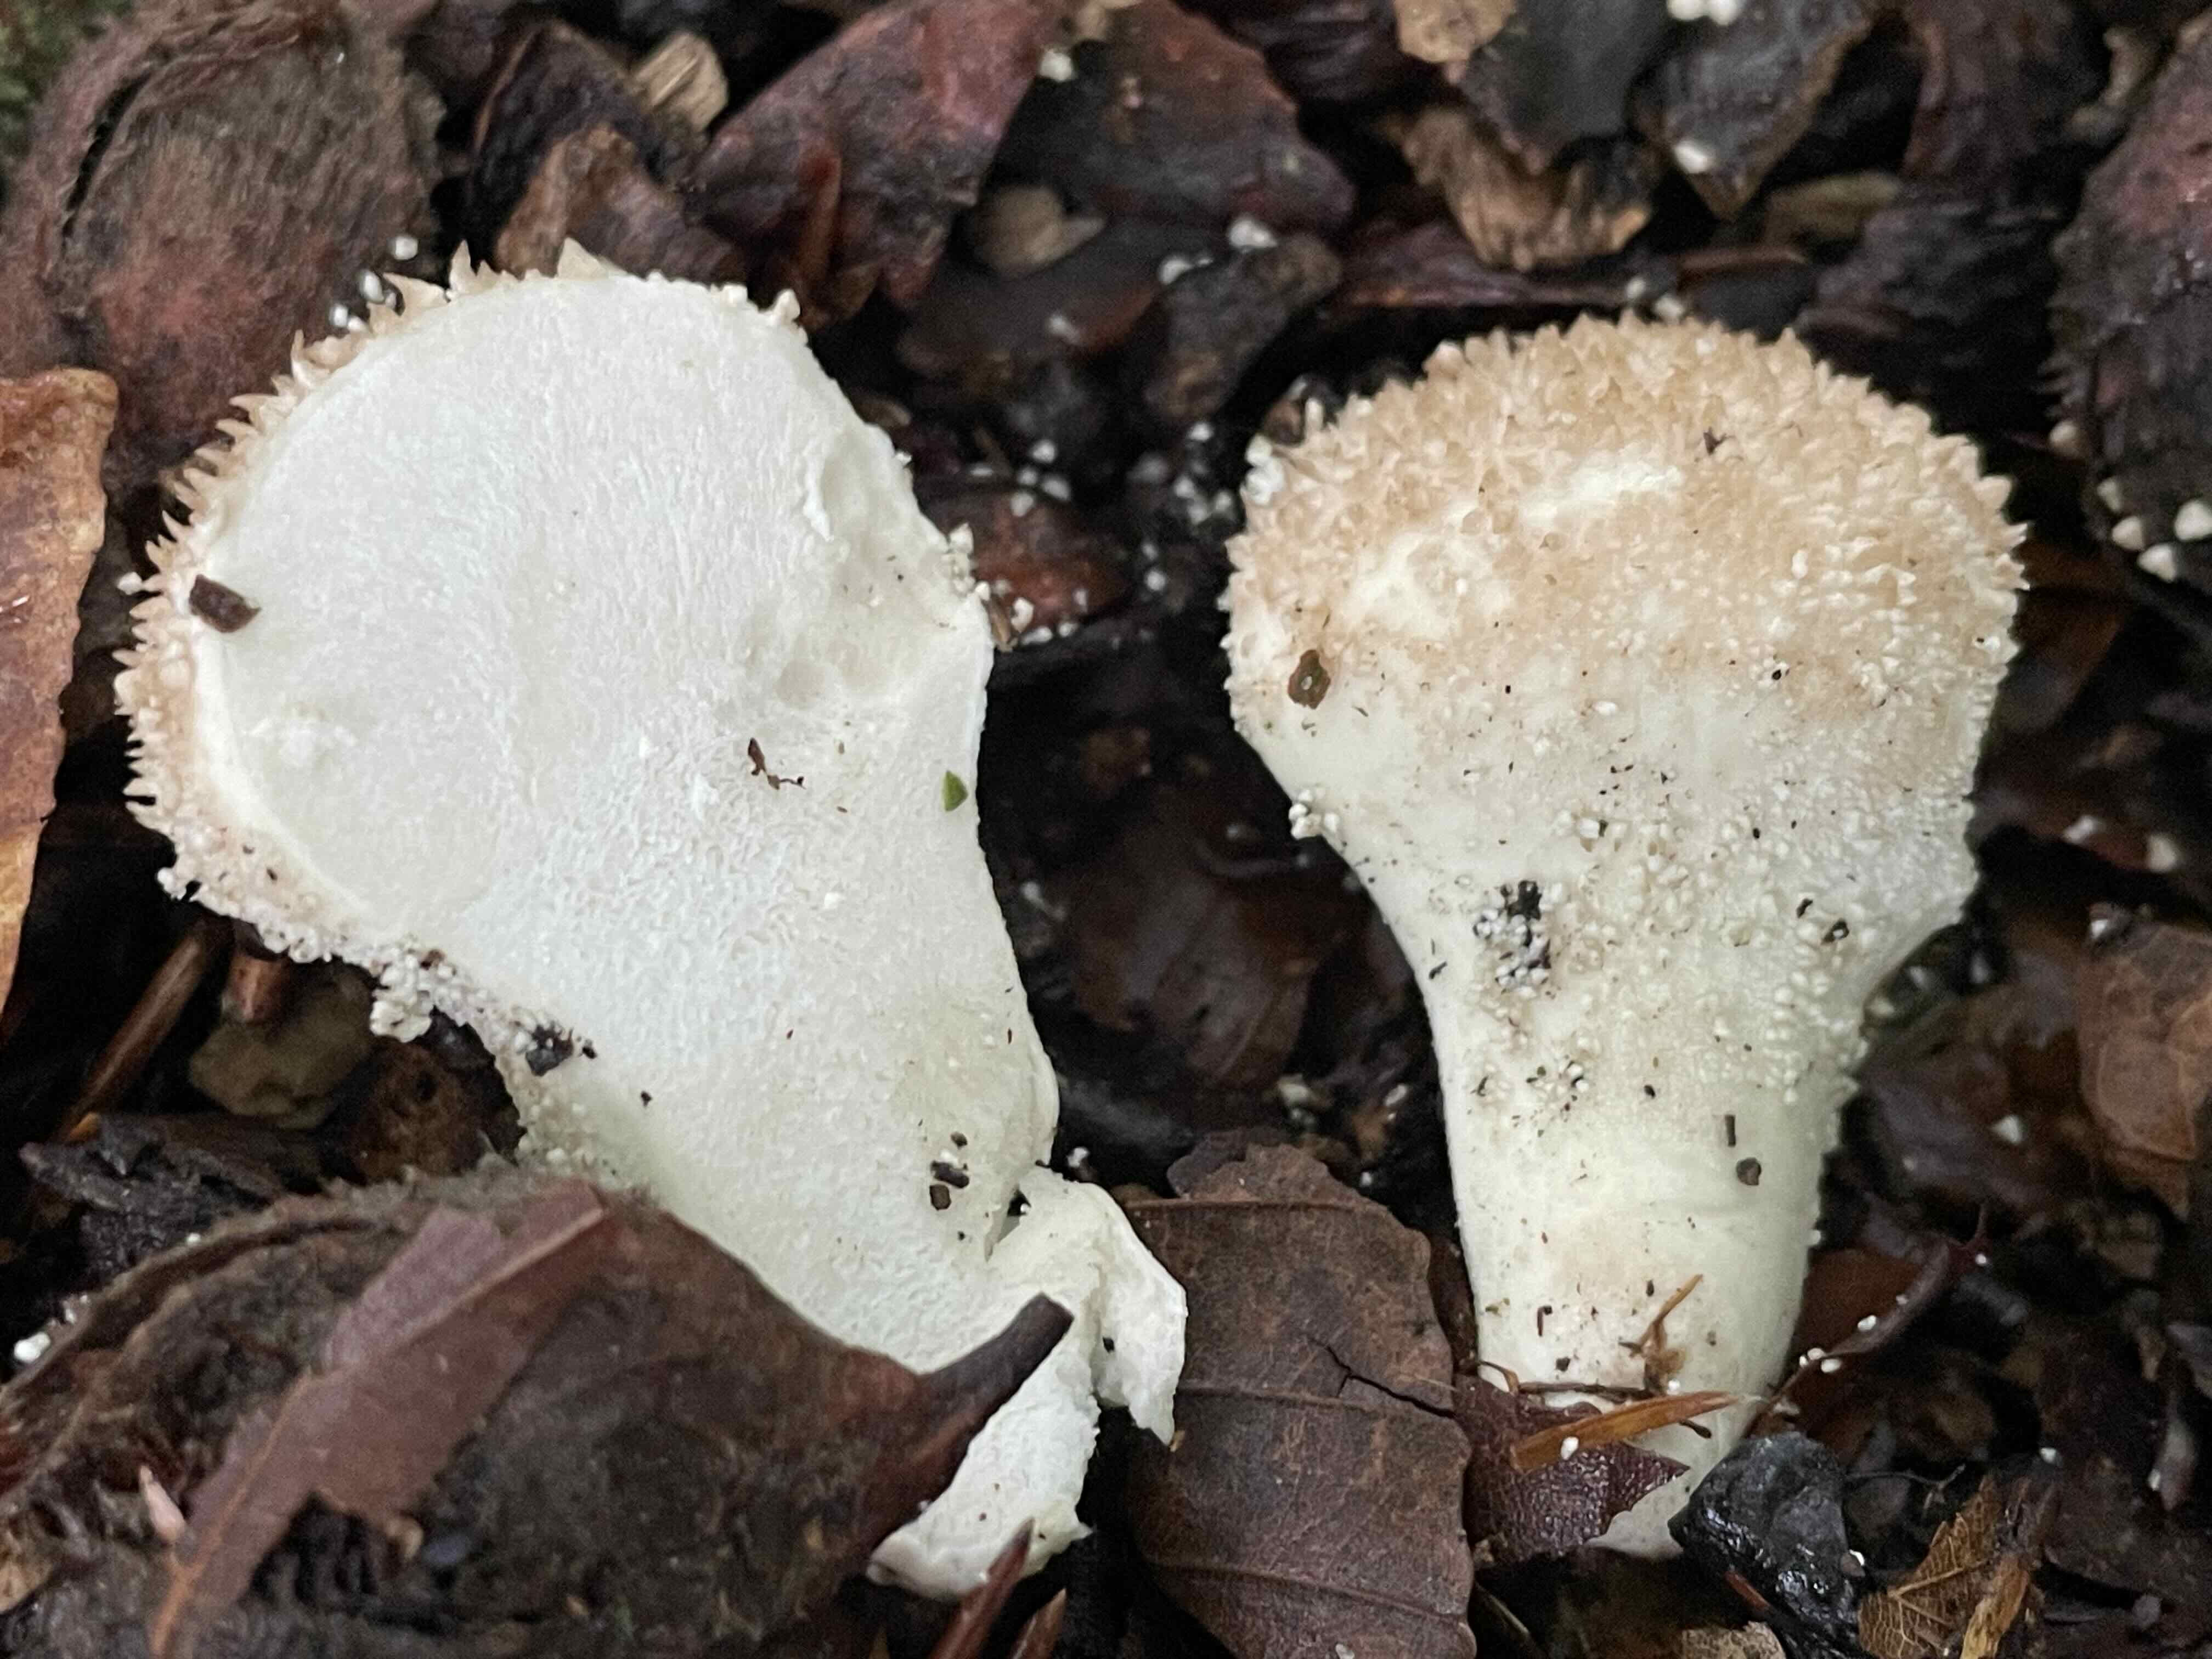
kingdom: Fungi
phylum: Basidiomycota
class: Agaricomycetes
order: Agaricales
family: Lycoperdaceae
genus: Lycoperdon
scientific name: Lycoperdon perlatum
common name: krystal-støvbold
